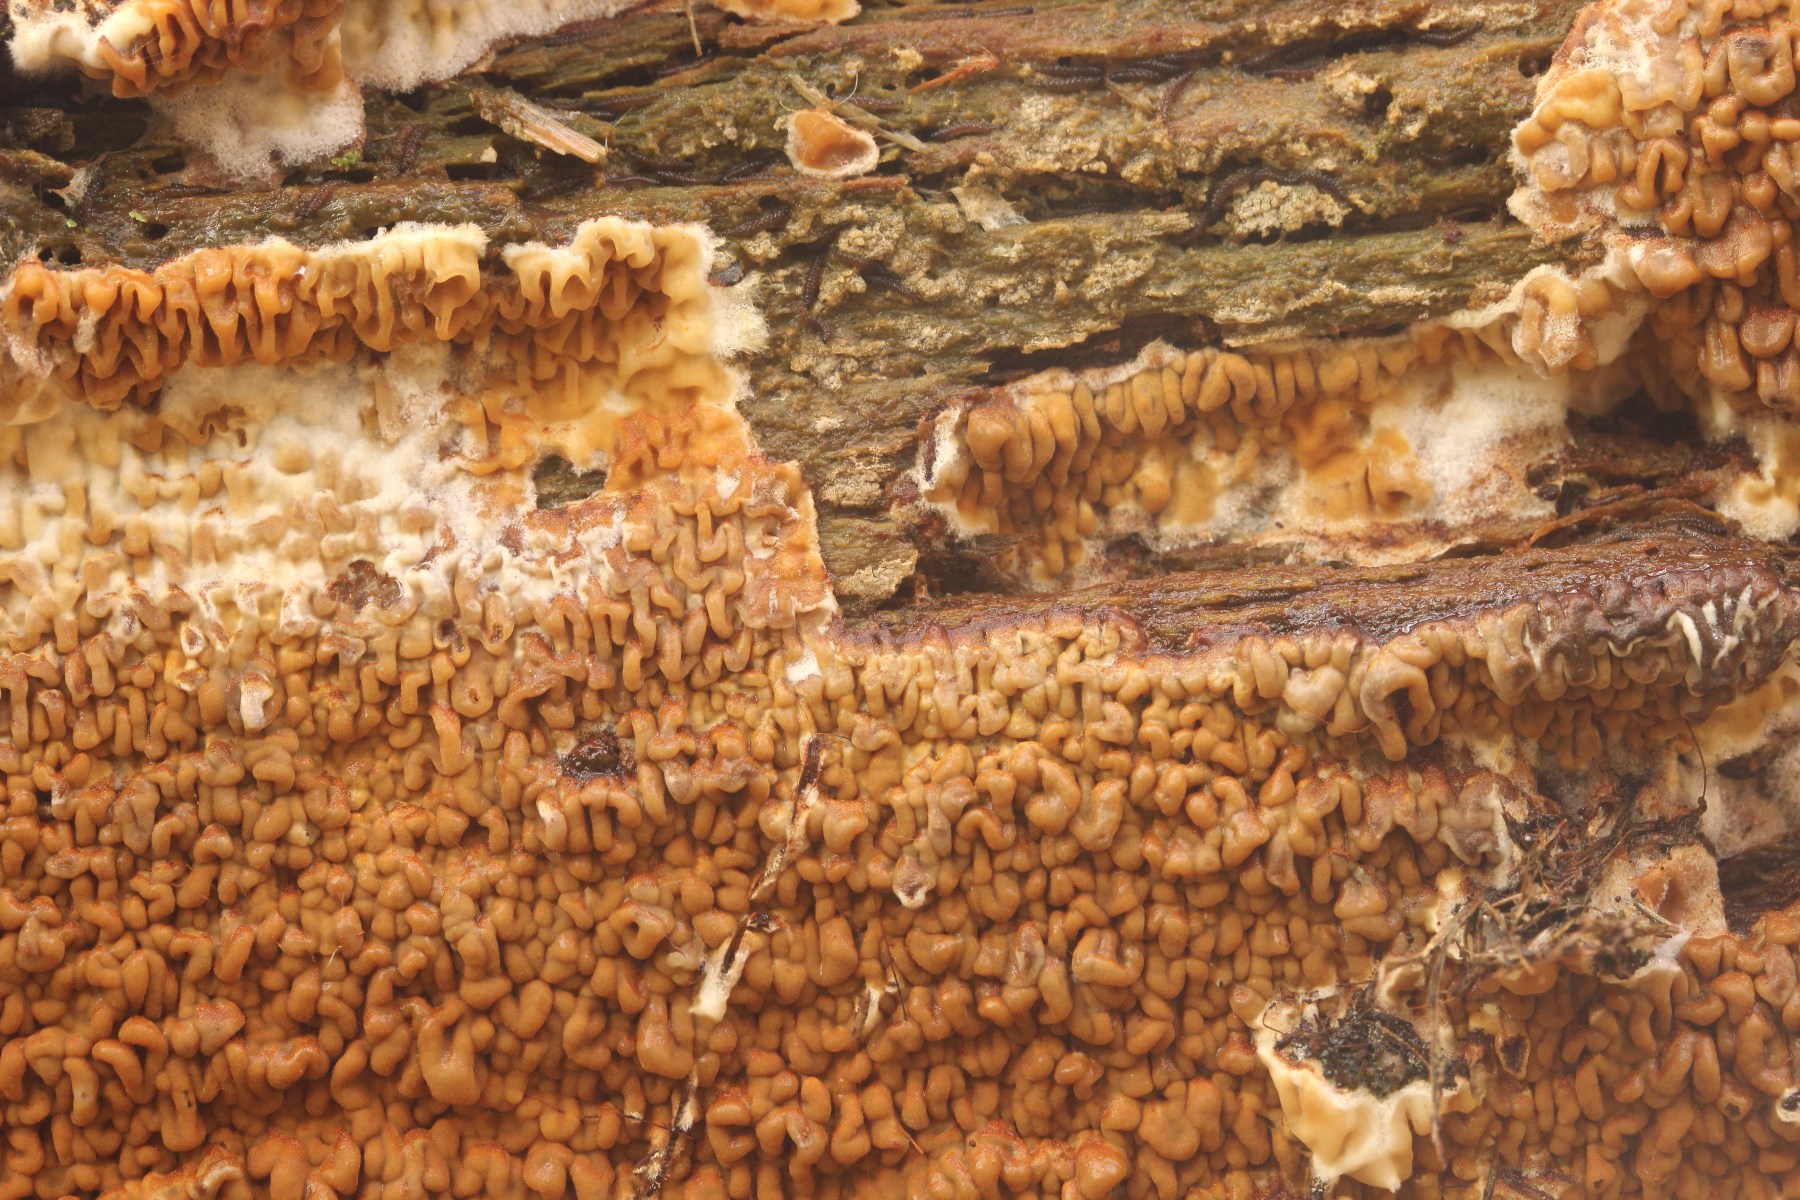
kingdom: Fungi
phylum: Basidiomycota
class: Agaricomycetes
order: Boletales
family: Serpulaceae
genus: Serpula
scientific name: Serpula himantioides
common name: tyndkødet hussvamp
